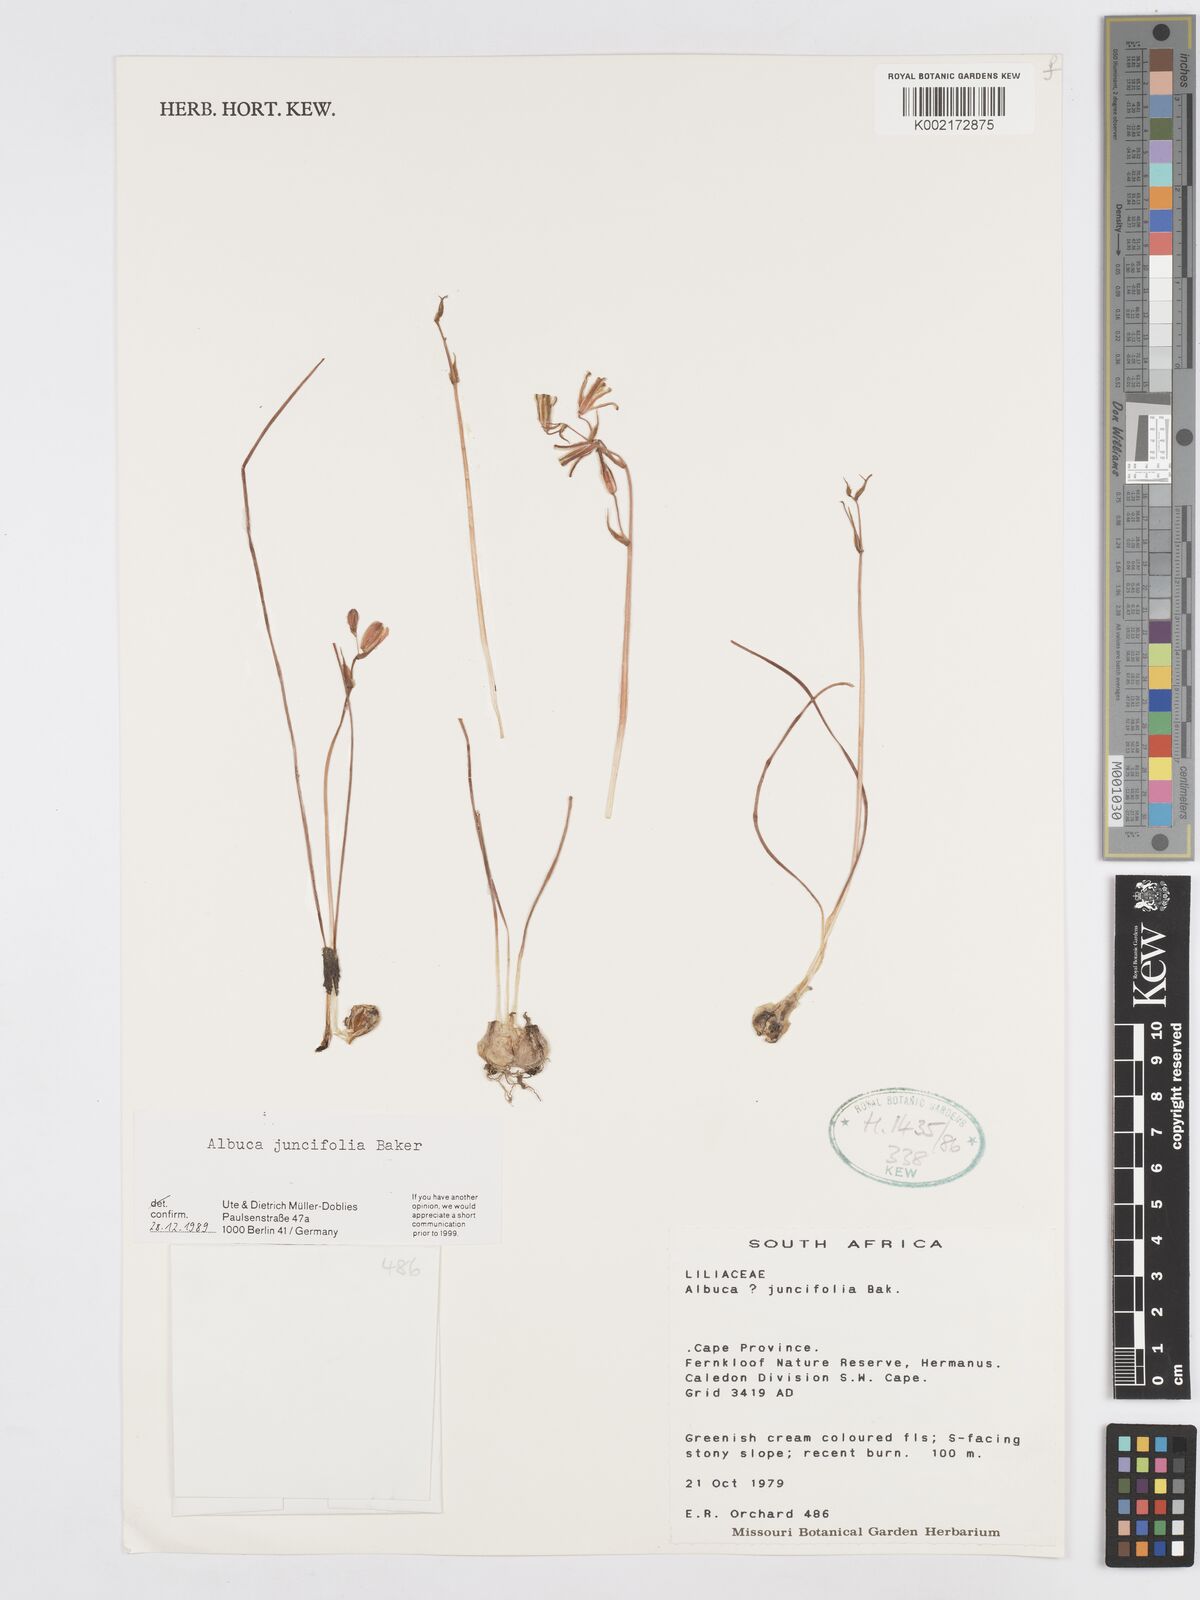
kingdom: Plantae
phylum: Tracheophyta
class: Liliopsida
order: Asparagales
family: Asparagaceae
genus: Albuca
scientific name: Albuca juncifolia
